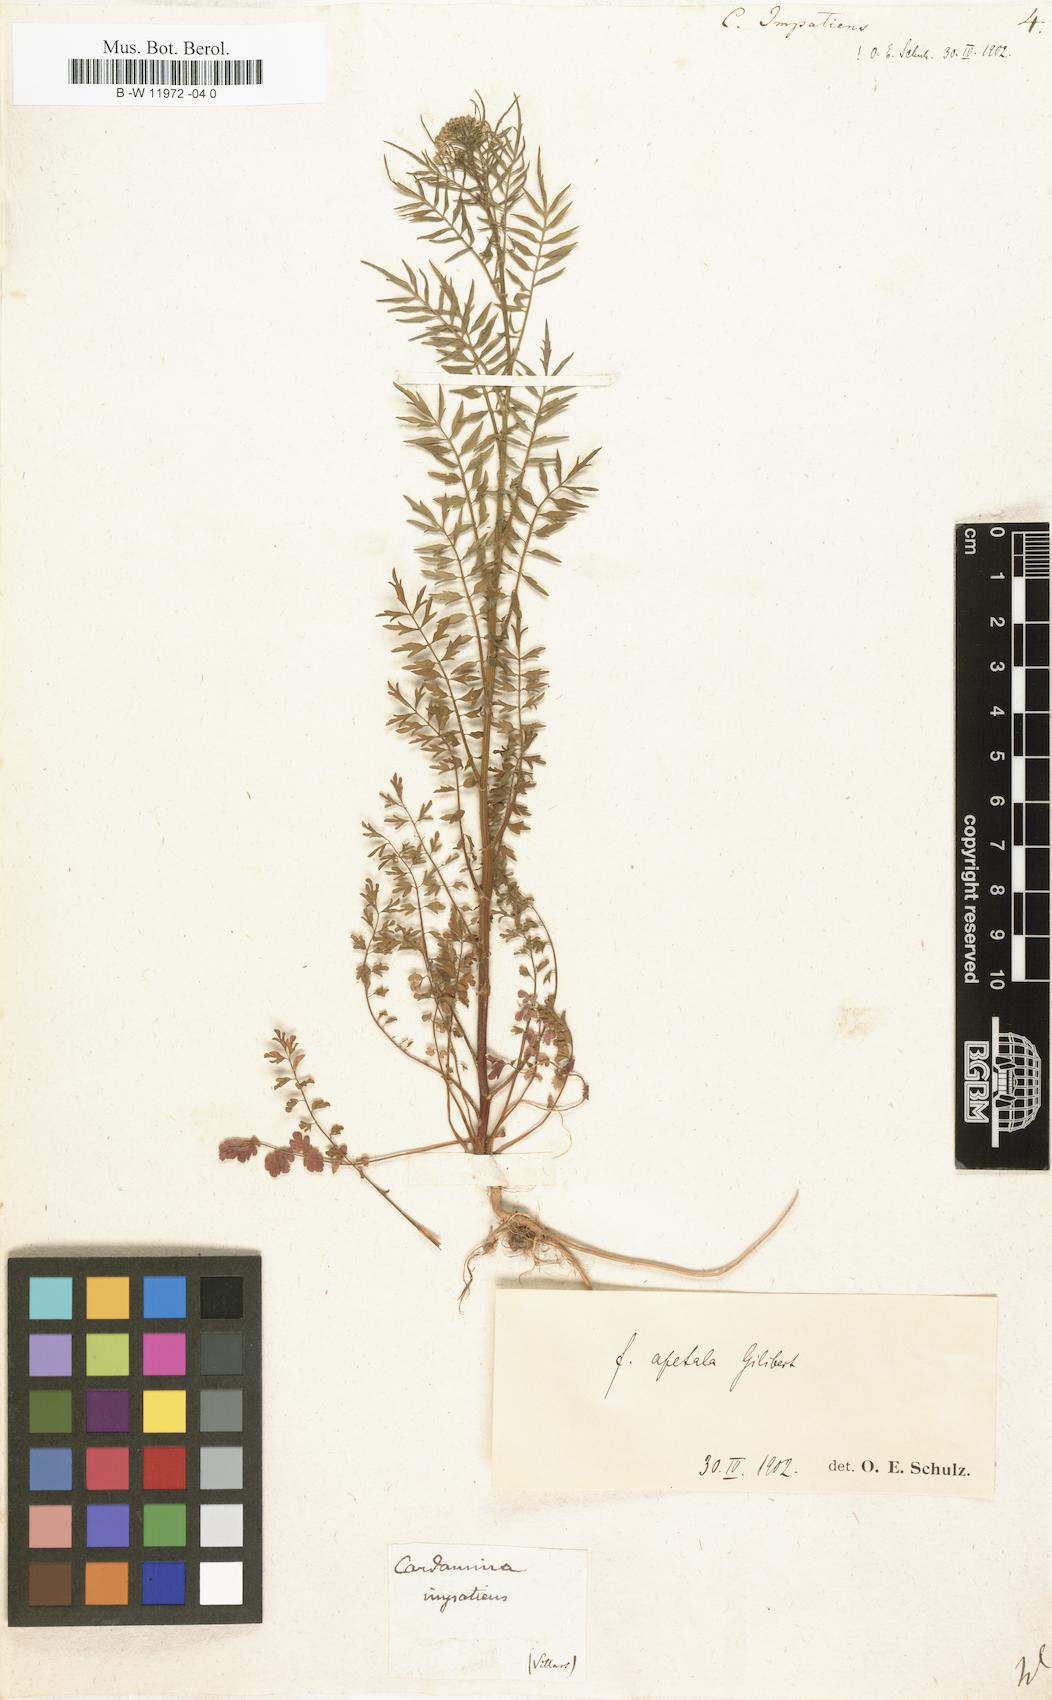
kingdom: Plantae
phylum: Tracheophyta
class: Magnoliopsida
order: Brassicales
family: Brassicaceae
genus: Cardamine
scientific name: Cardamine impatiens
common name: Narrow-leaved bitter-cress
